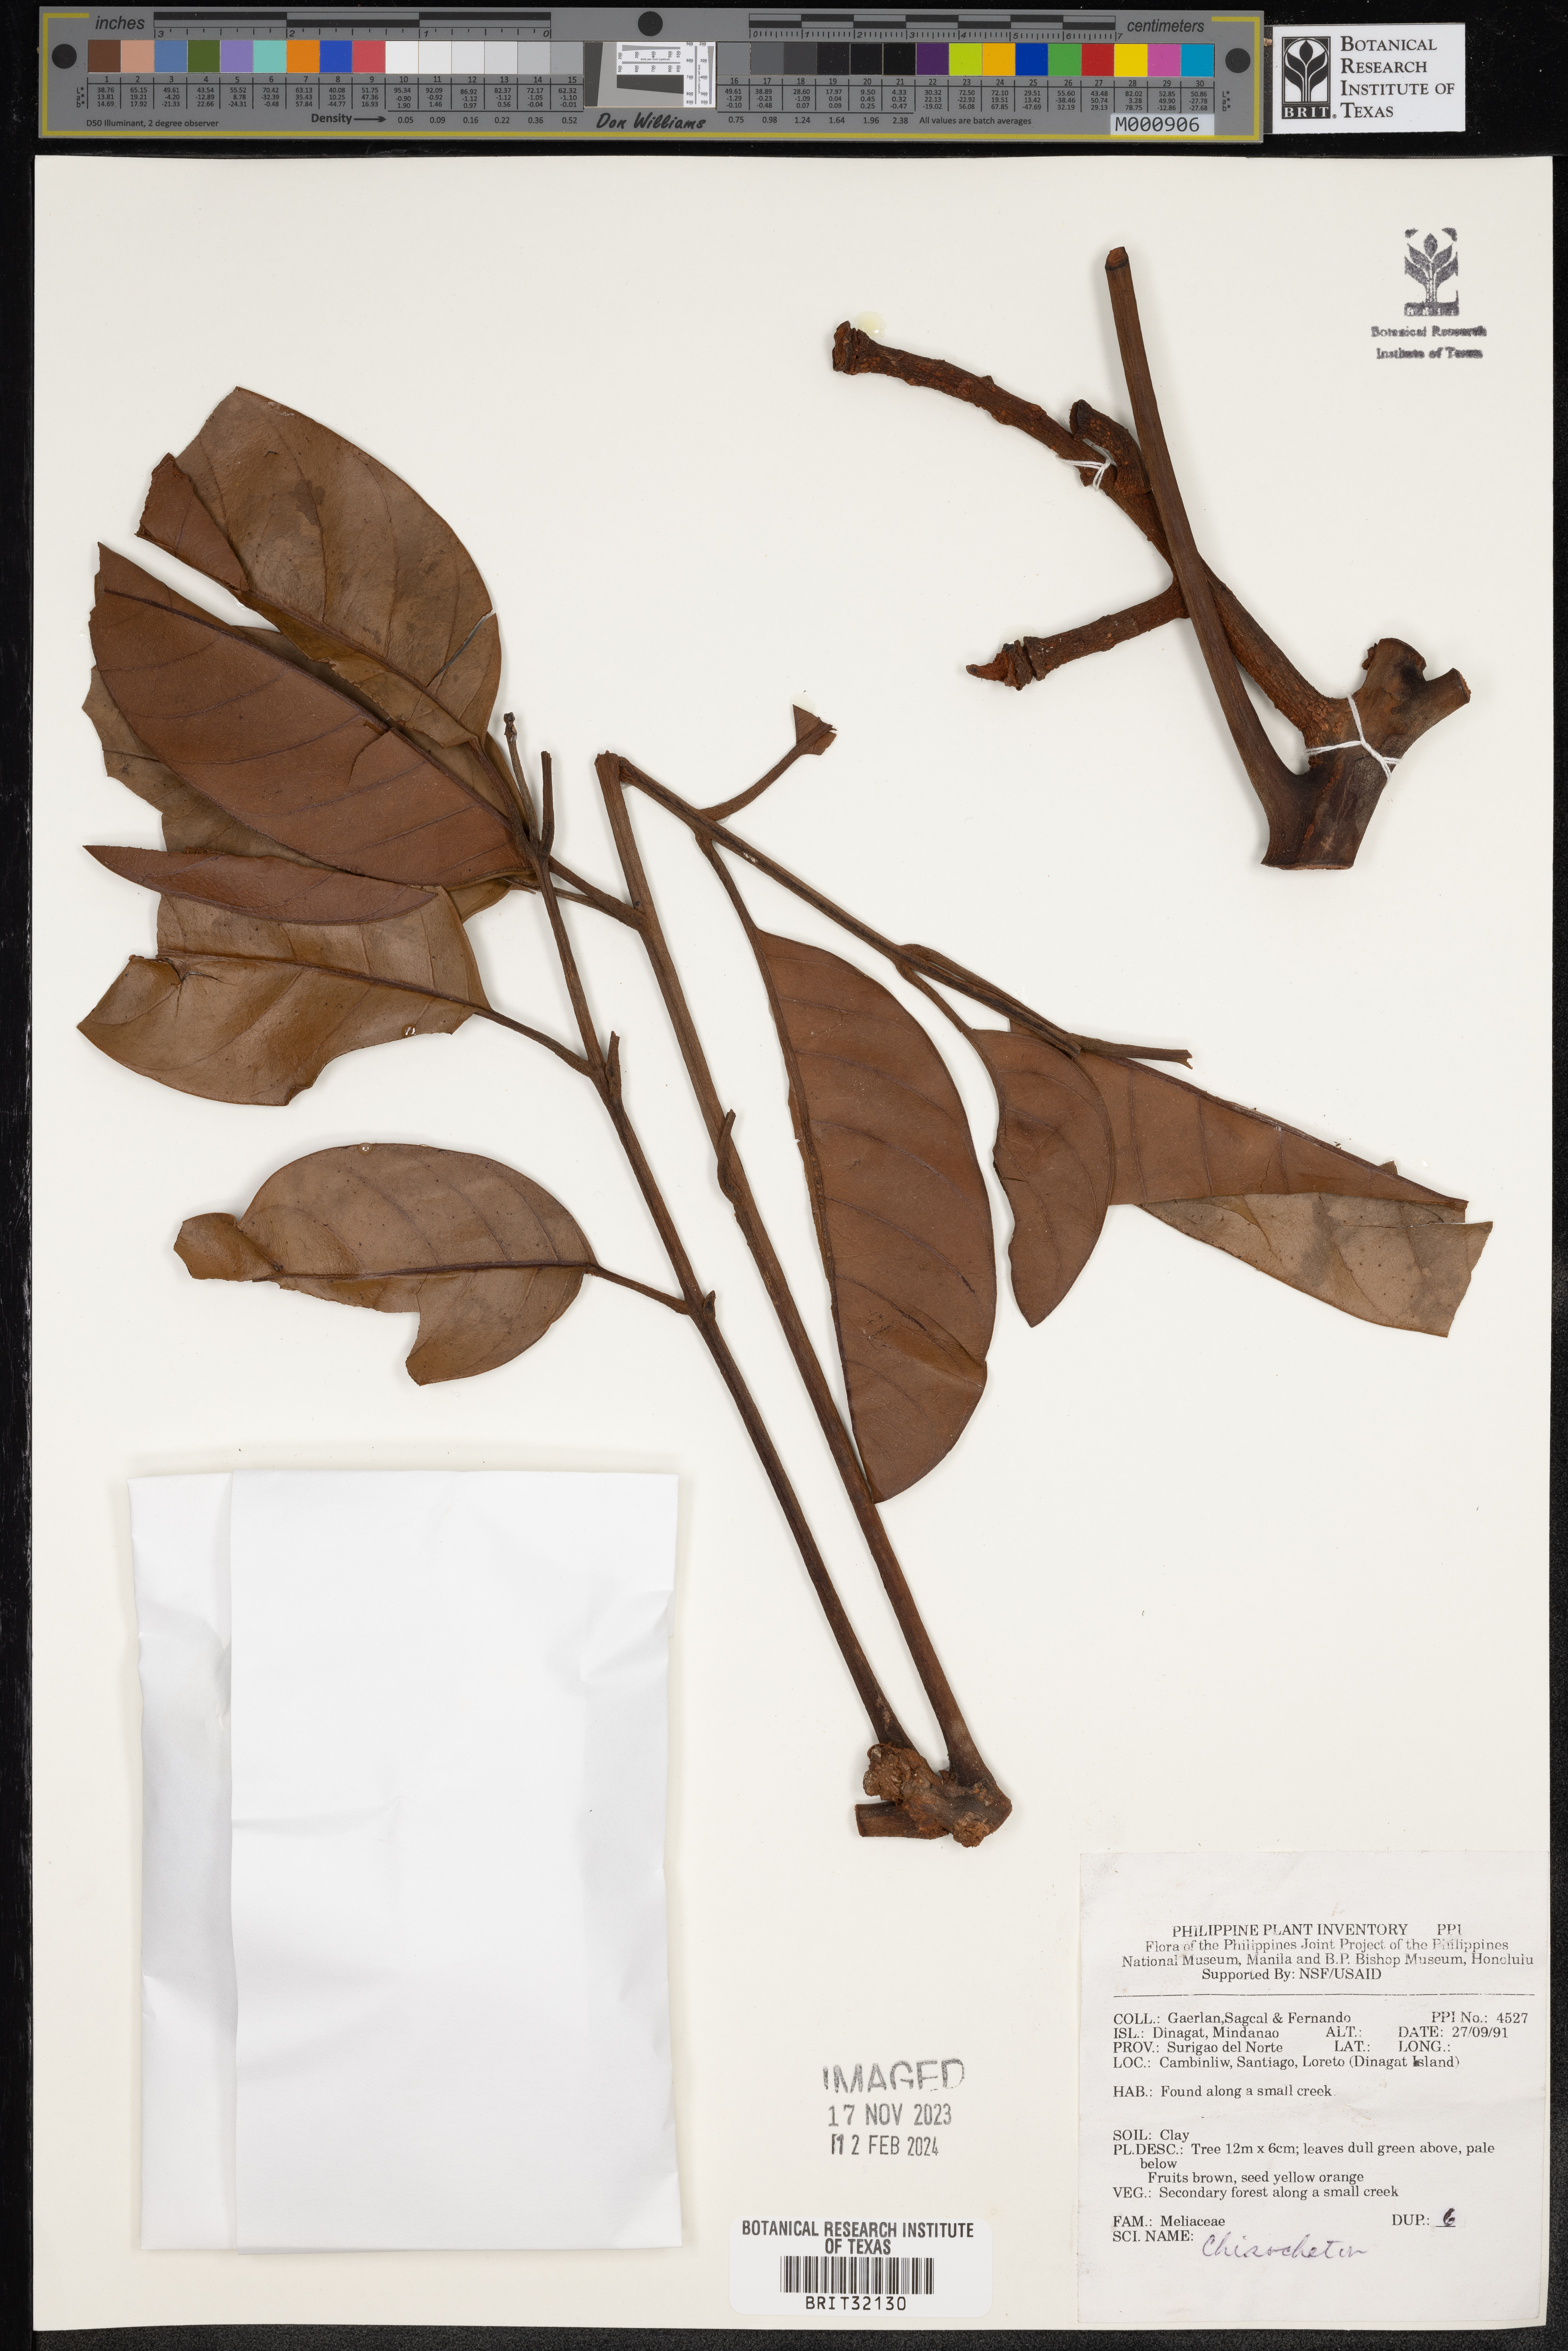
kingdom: Plantae
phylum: Tracheophyta
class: Magnoliopsida
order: Sapindales
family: Meliaceae
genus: Chisocheton
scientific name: Chisocheton
